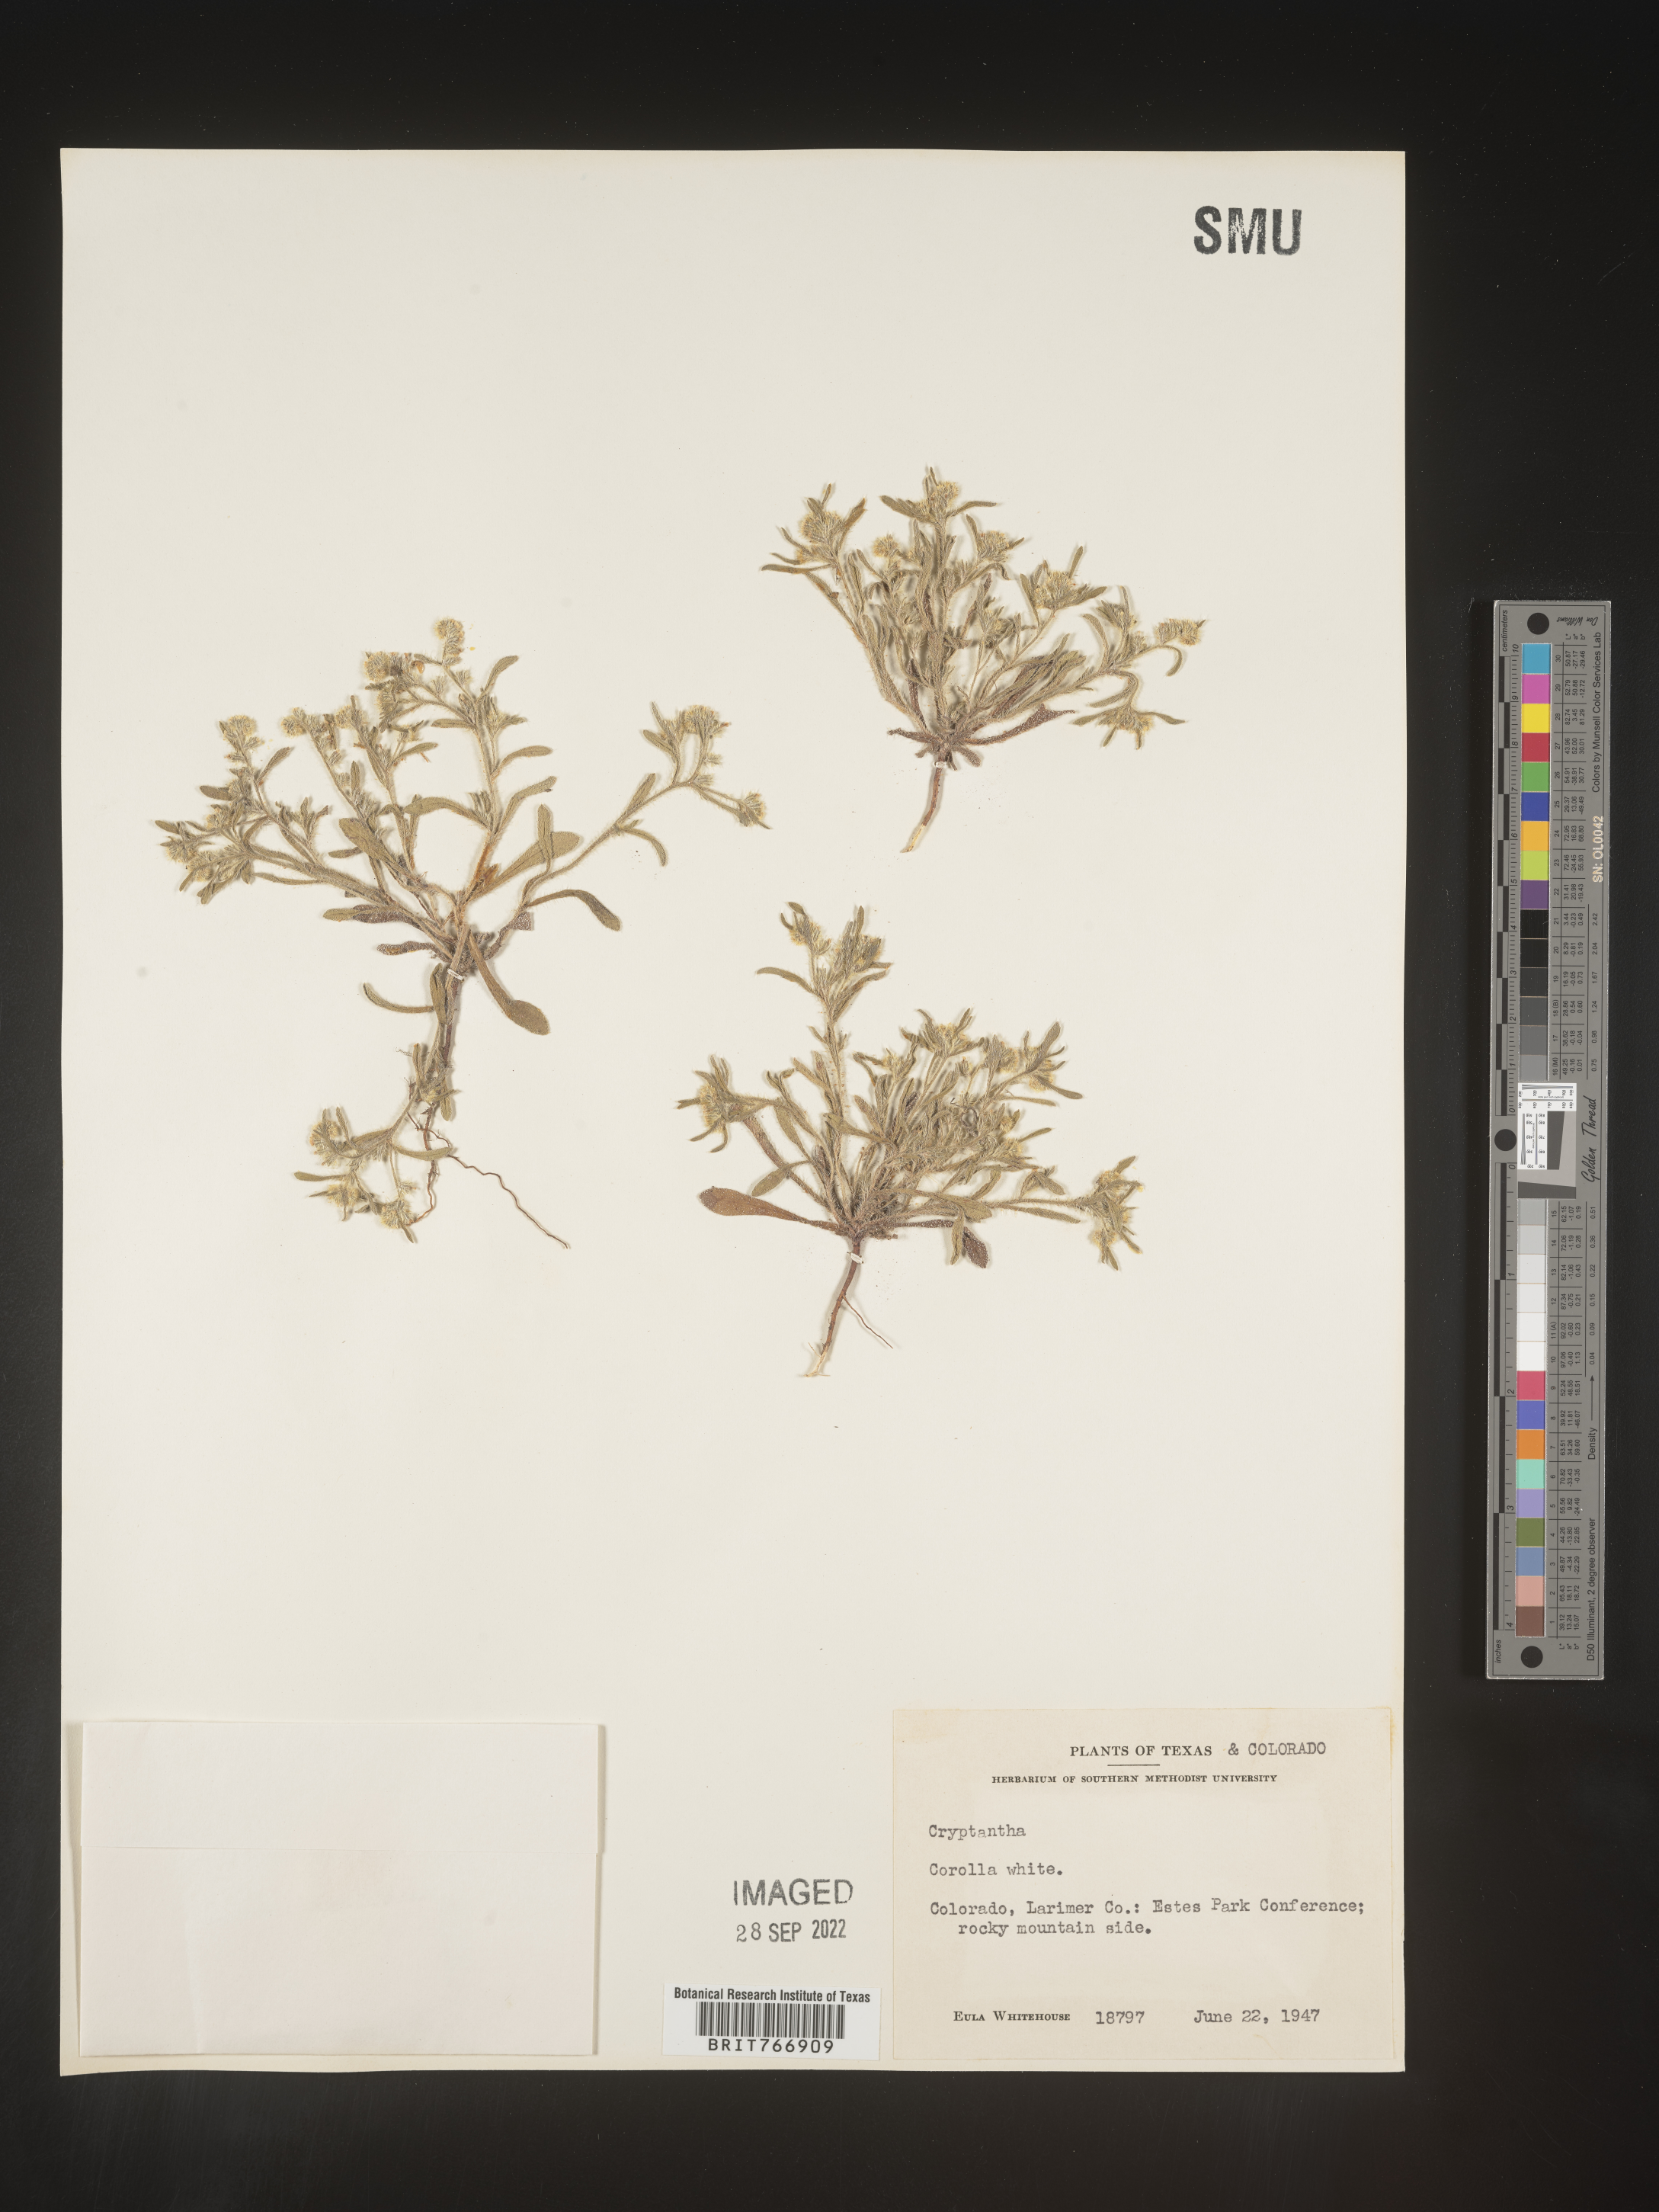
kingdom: Plantae
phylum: Tracheophyta
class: Magnoliopsida
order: Boraginales
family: Boraginaceae
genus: Cryptantha
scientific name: Cryptantha
